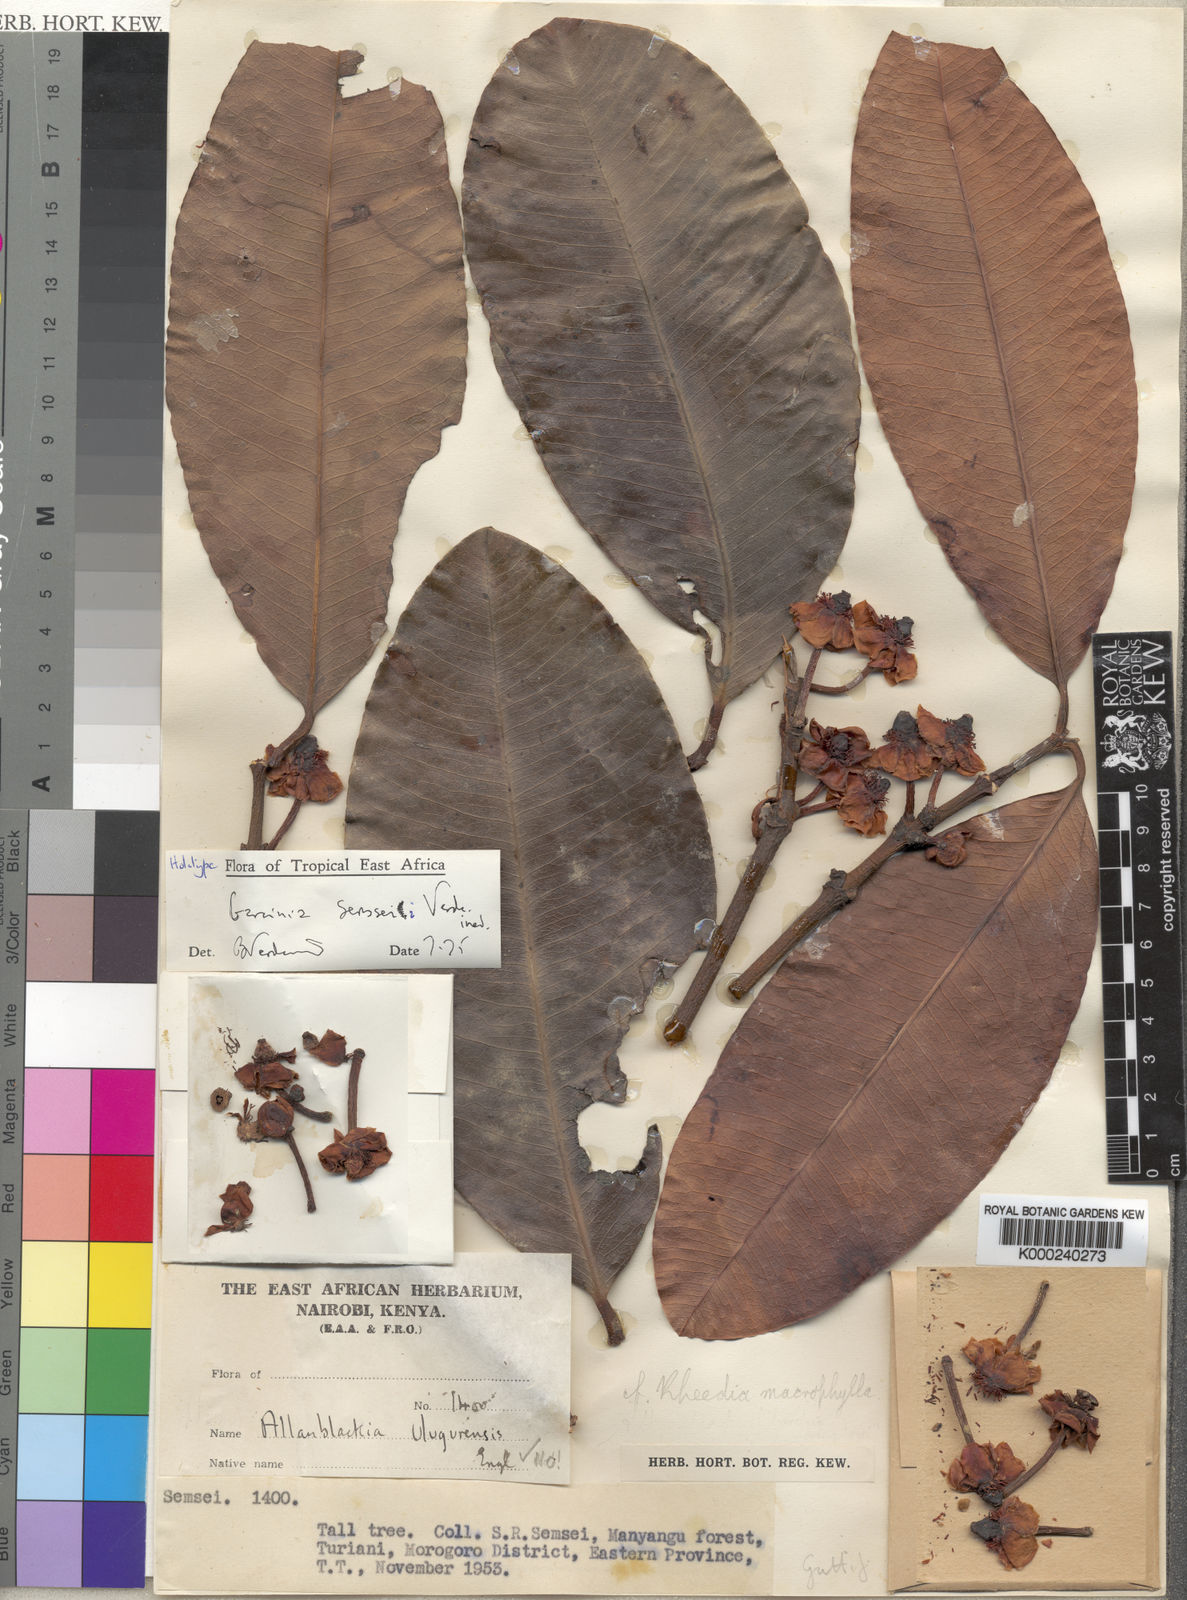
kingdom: Plantae
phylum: Tracheophyta
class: Magnoliopsida
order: Malpighiales
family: Clusiaceae
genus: Garcinia
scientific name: Garcinia semseii
